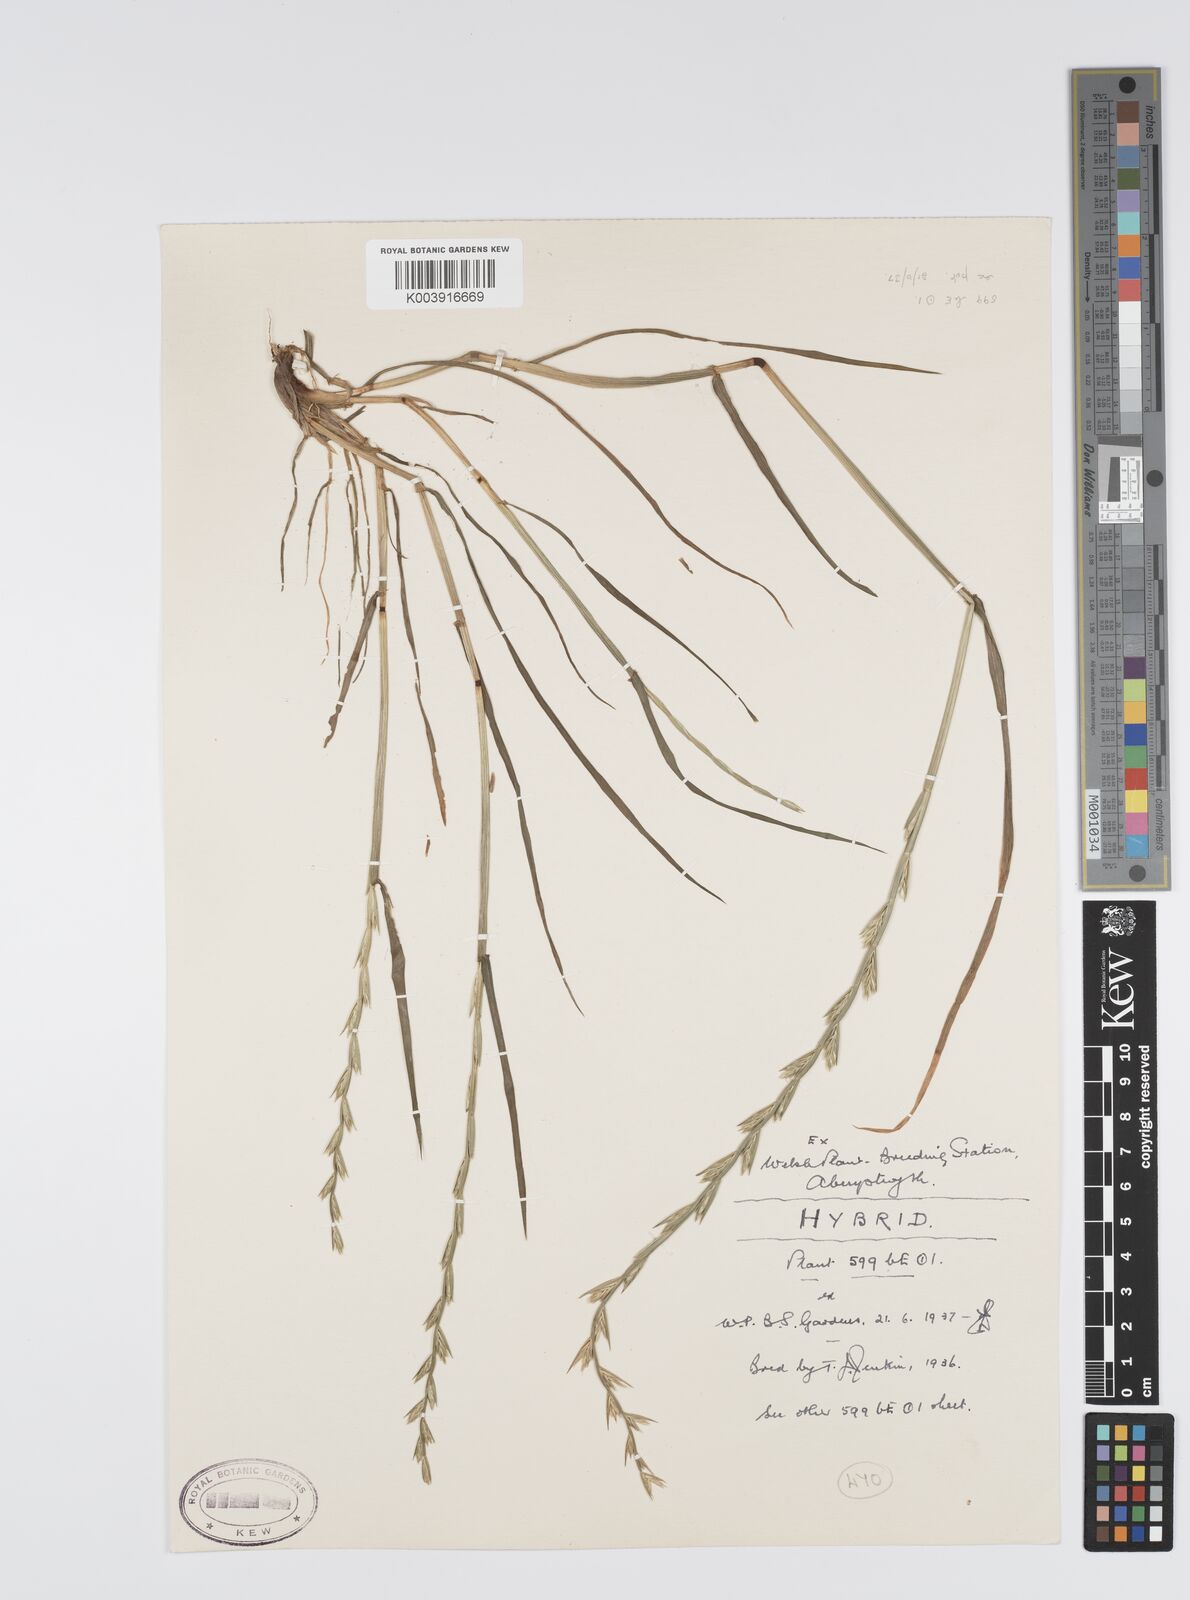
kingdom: Plantae
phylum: Tracheophyta
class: Liliopsida
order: Poales
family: Poaceae
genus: Lolium
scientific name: Lolium perenne
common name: Perennial ryegrass
